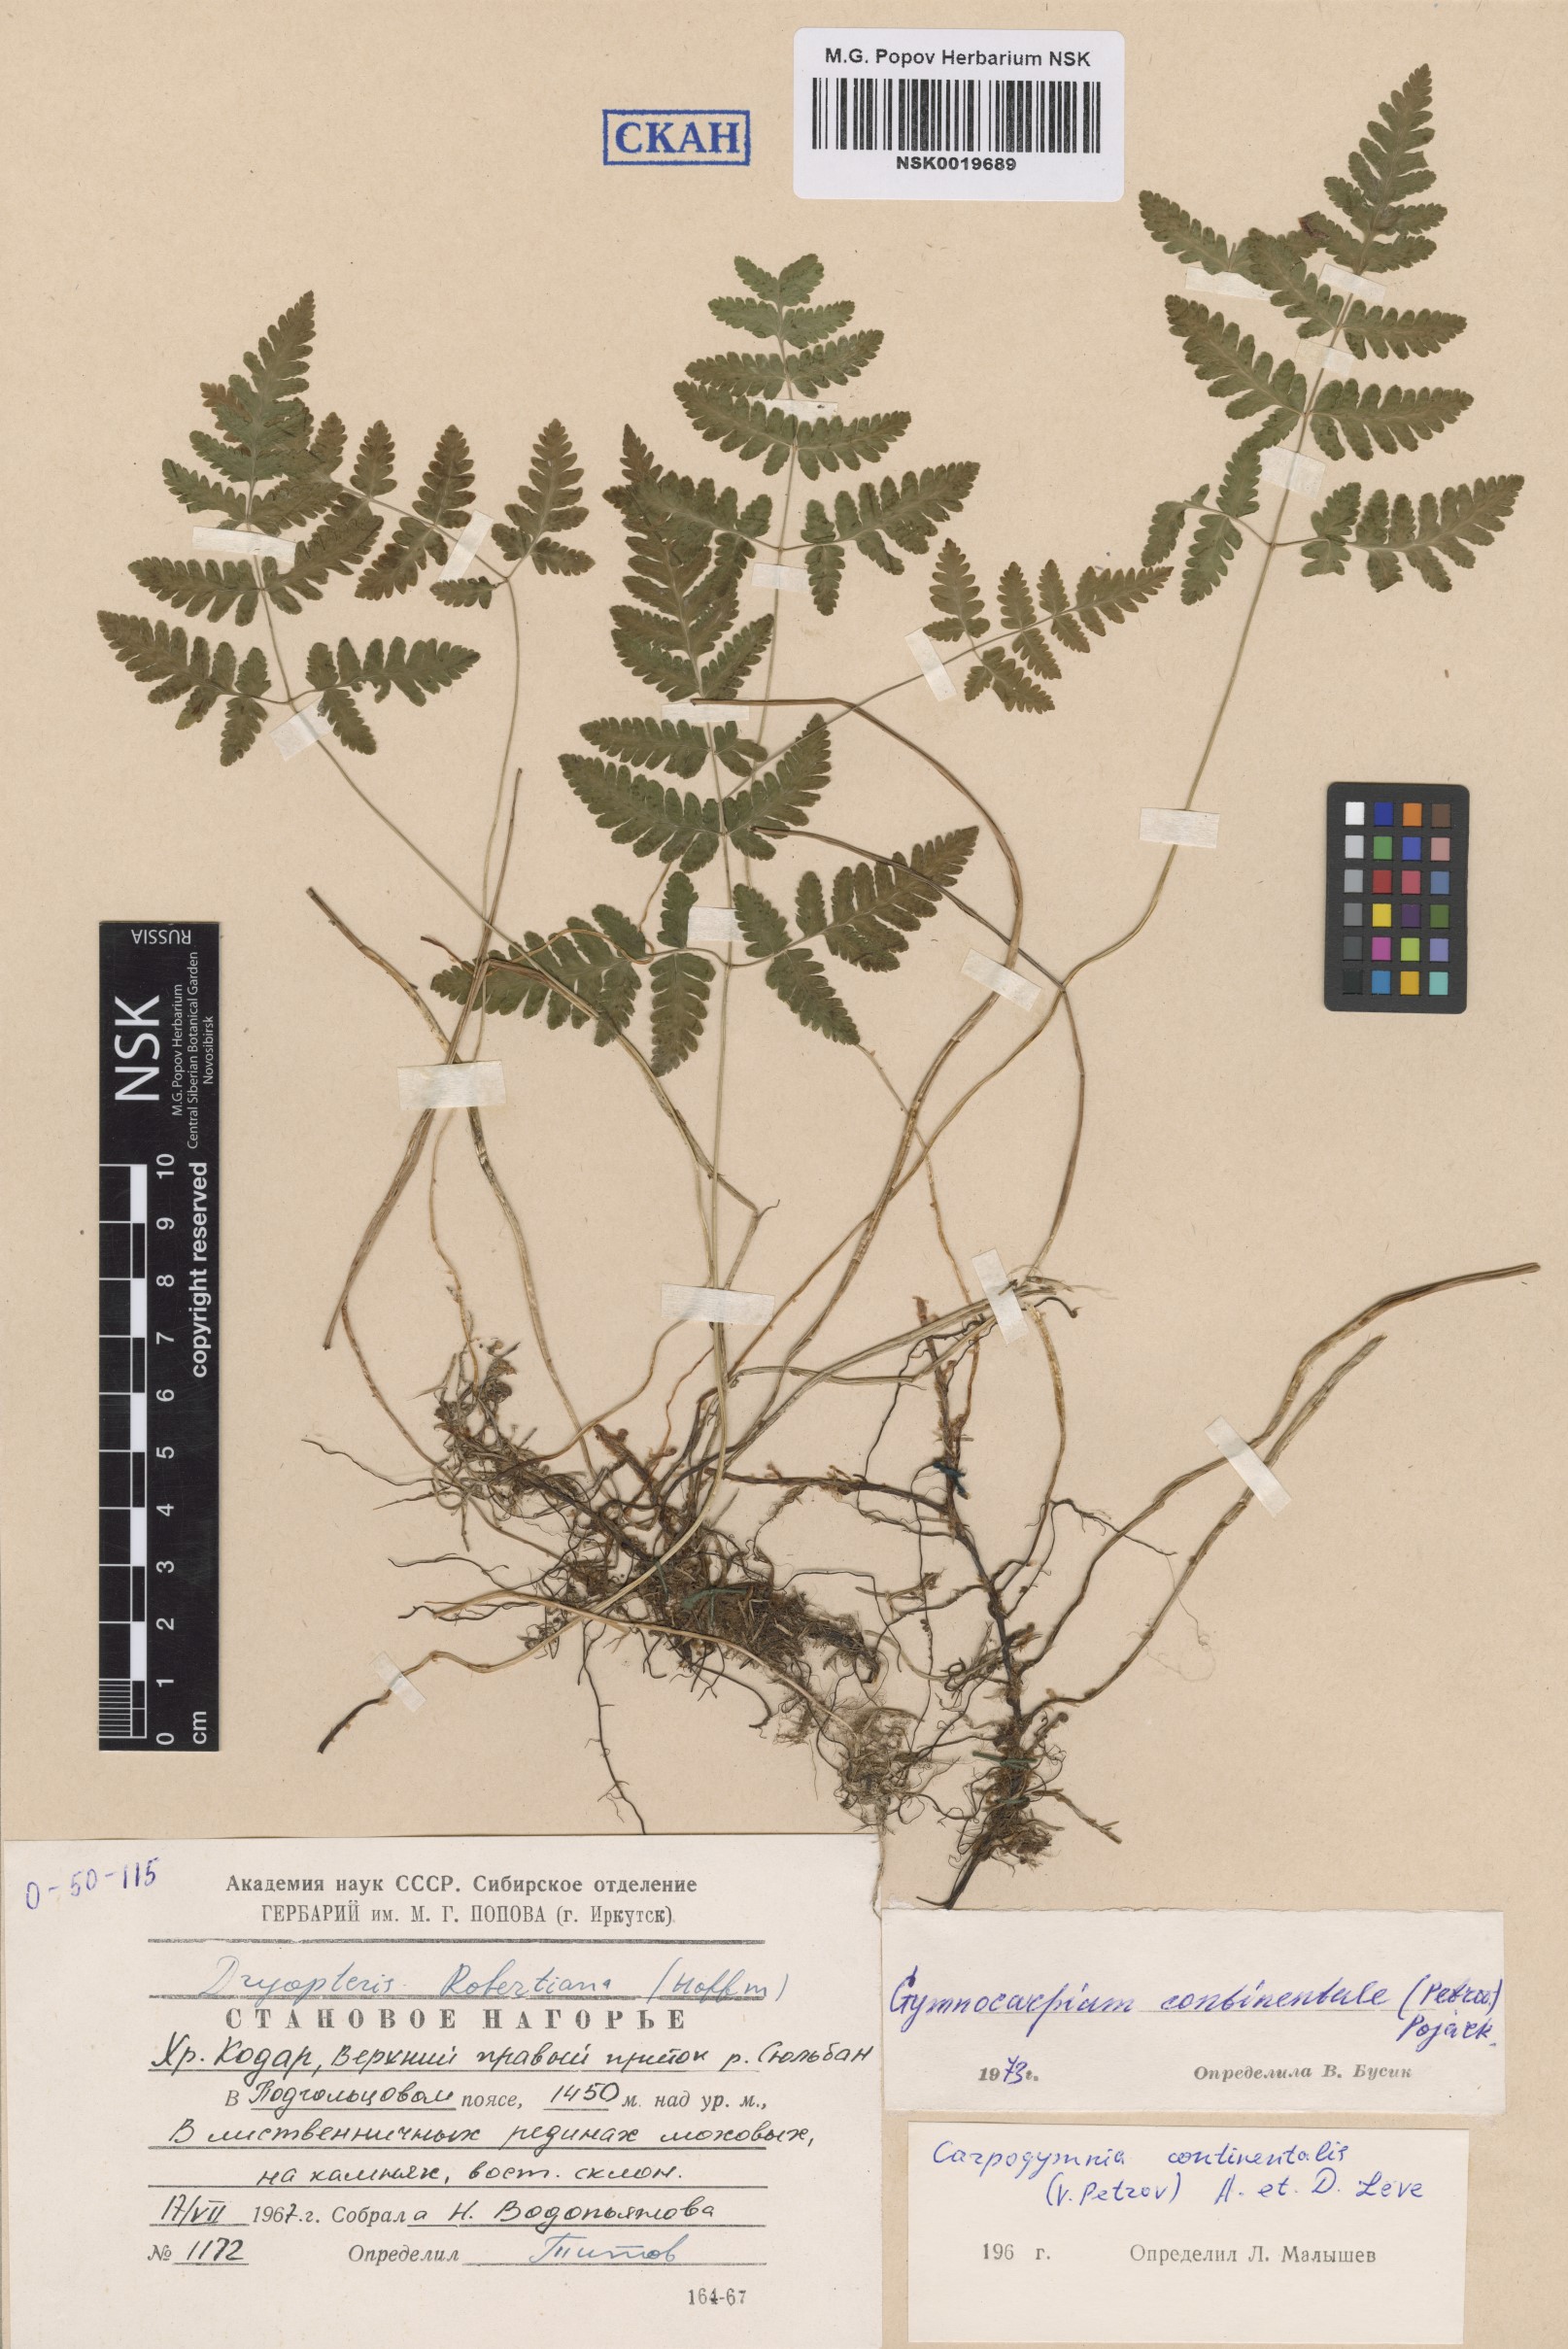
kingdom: Plantae
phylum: Tracheophyta
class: Polypodiopsida
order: Polypodiales
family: Cystopteridaceae
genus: Gymnocarpium
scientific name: Gymnocarpium continentale
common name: Asian oak fern
